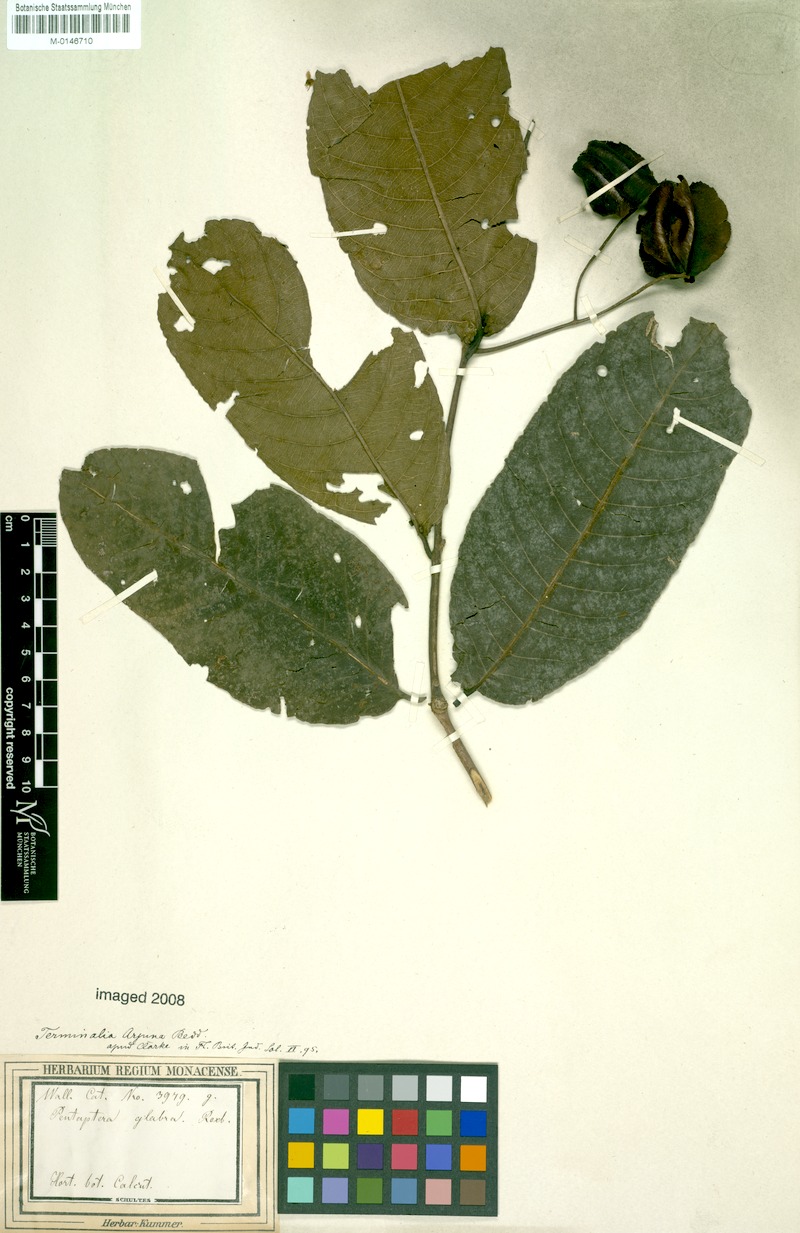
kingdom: Plantae
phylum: Tracheophyta
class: Magnoliopsida
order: Myrtales
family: Combretaceae
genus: Terminalia
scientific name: Terminalia arjuna
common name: Arjun
